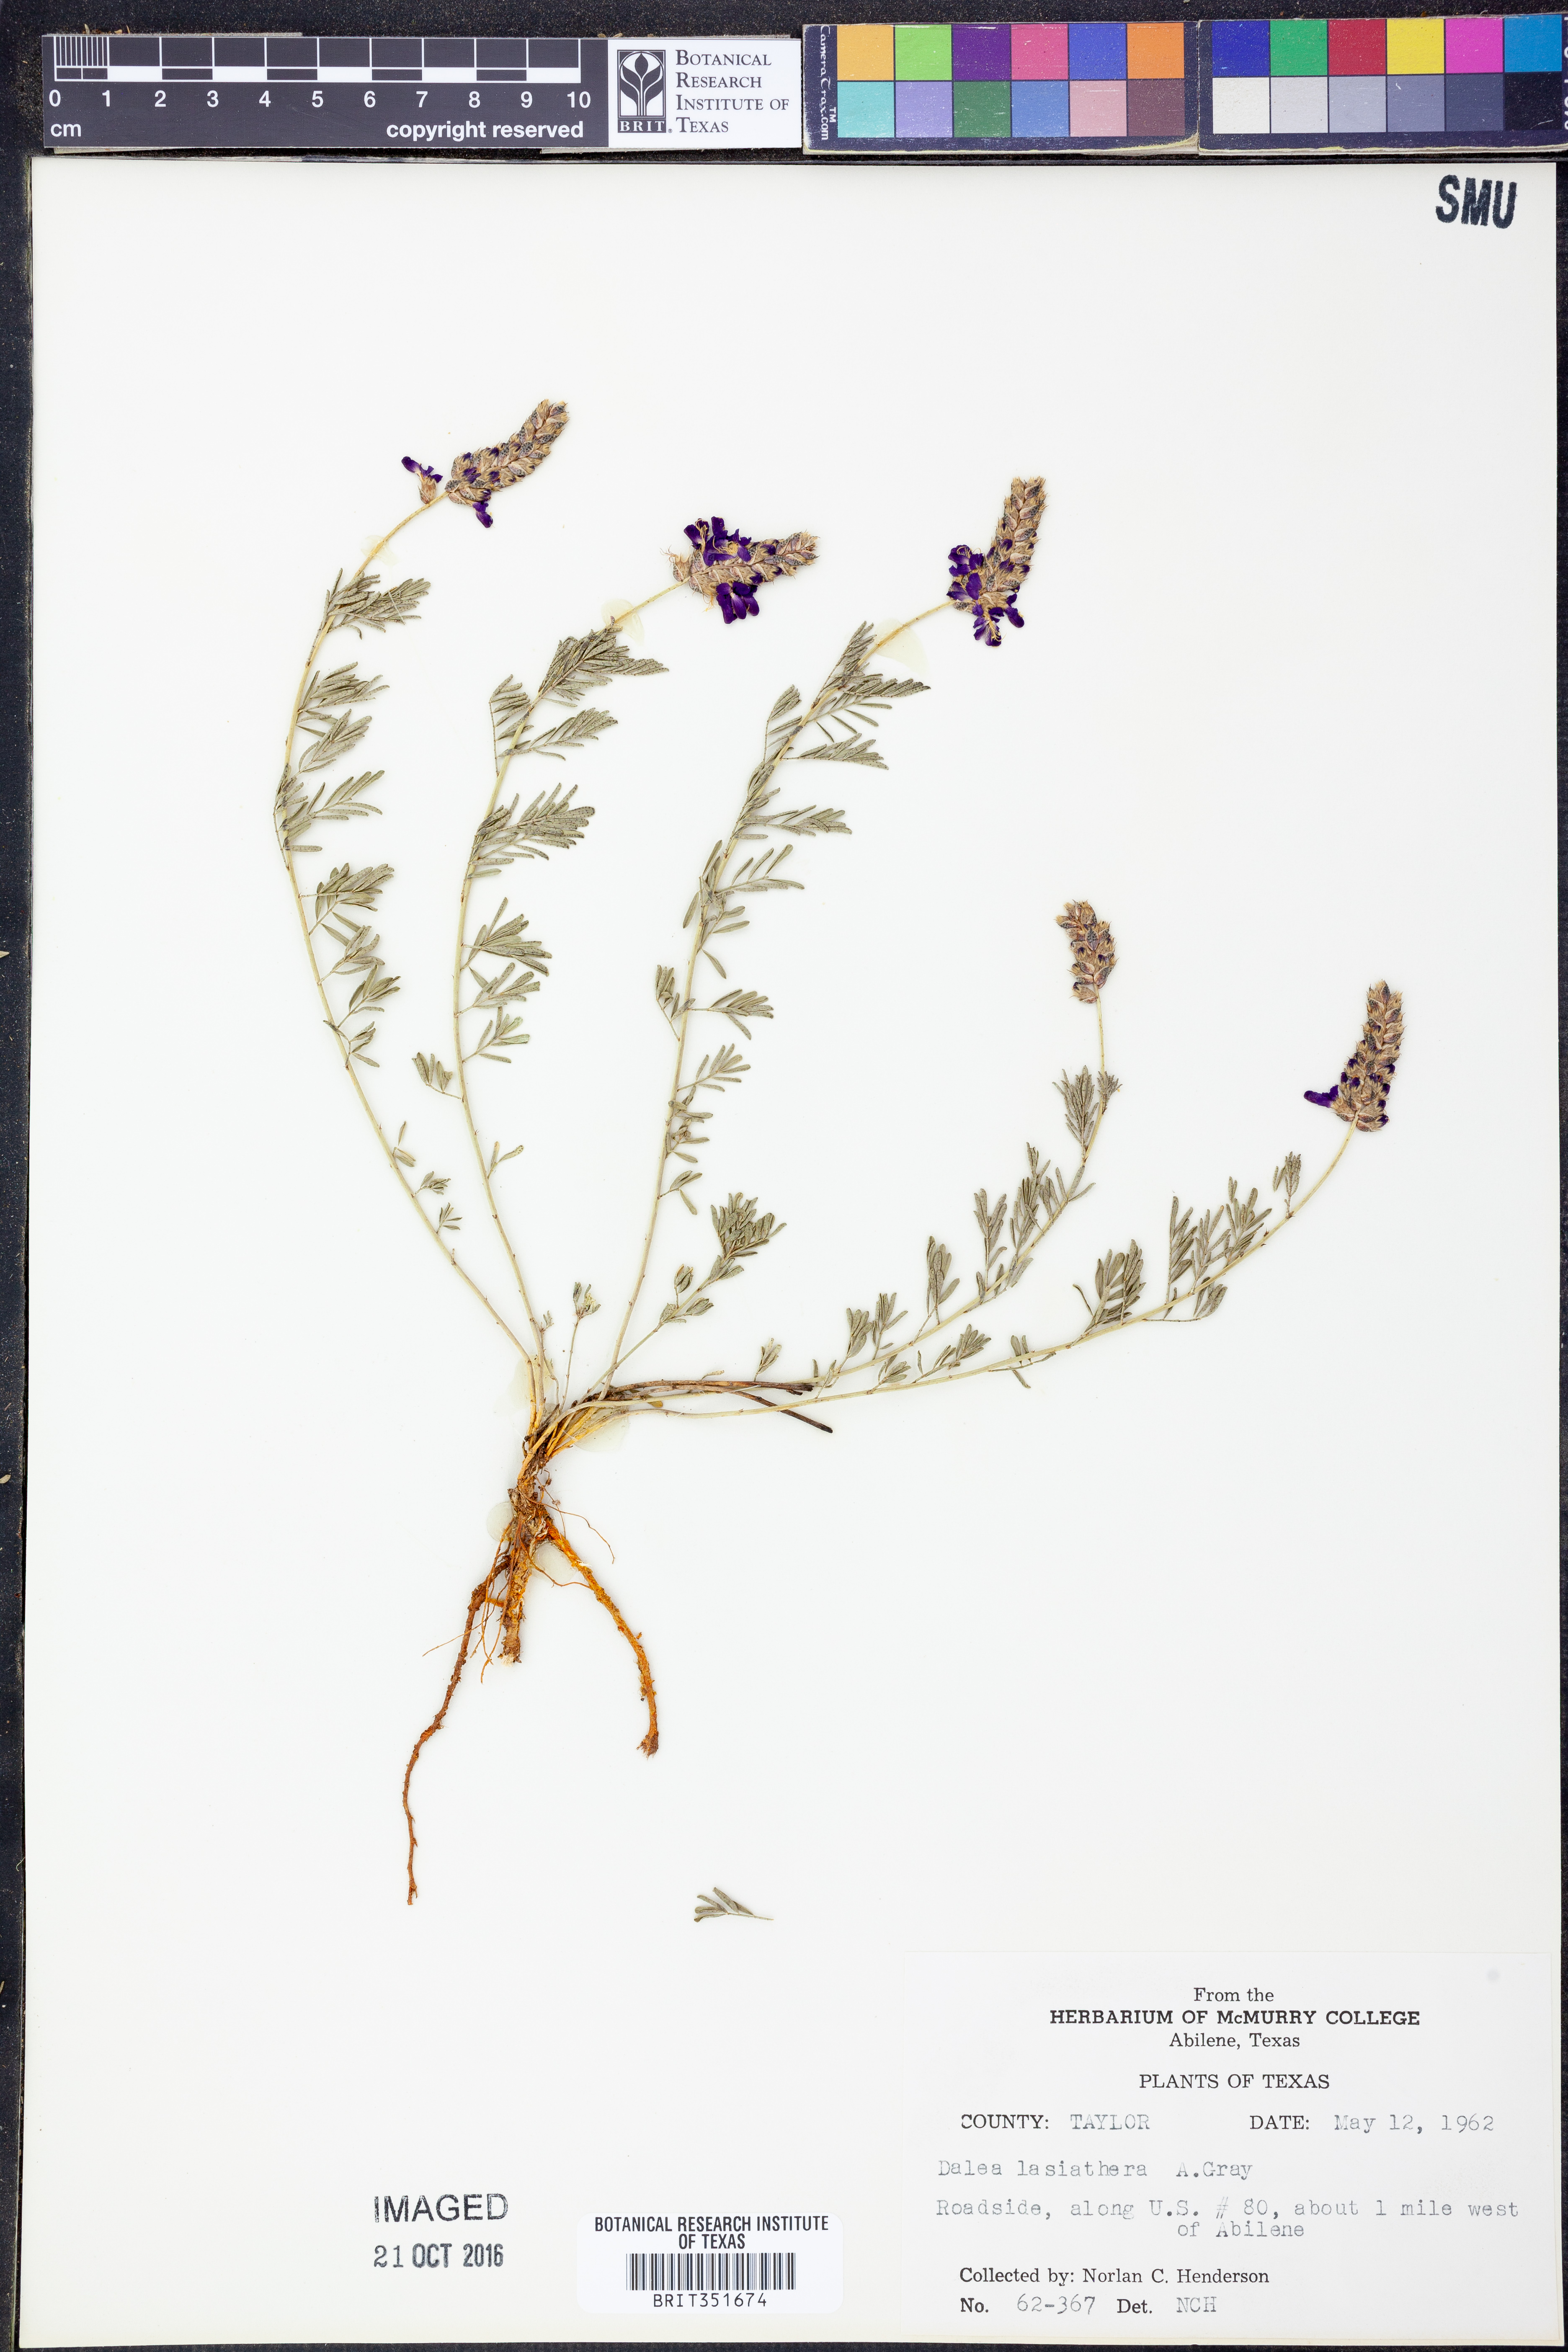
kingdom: Plantae
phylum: Tracheophyta
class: Magnoliopsida
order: Fabales
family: Fabaceae
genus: Dalea
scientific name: Dalea lasiathera
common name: Purple prairie-clover
